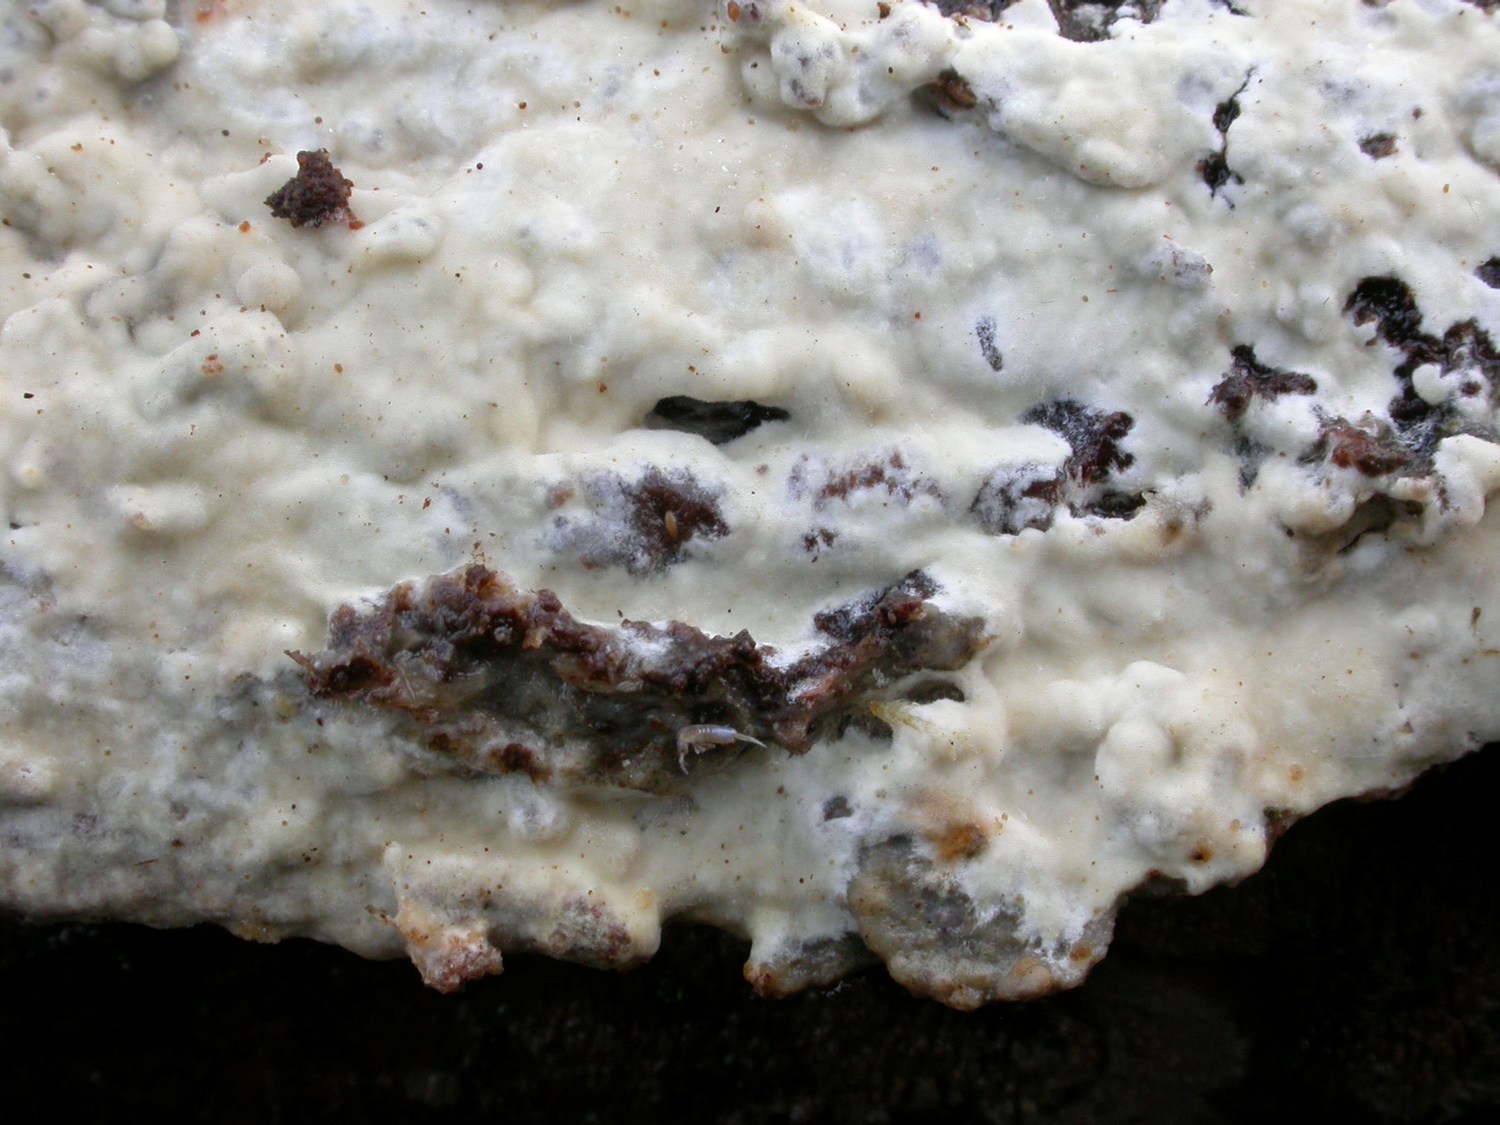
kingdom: Fungi
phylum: Basidiomycota
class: Agaricomycetes
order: Hymenochaetales
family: Hyphodontiaceae
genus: Hyphodontia
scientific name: Hyphodontia barba-jovis
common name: skægget tandsvamp
